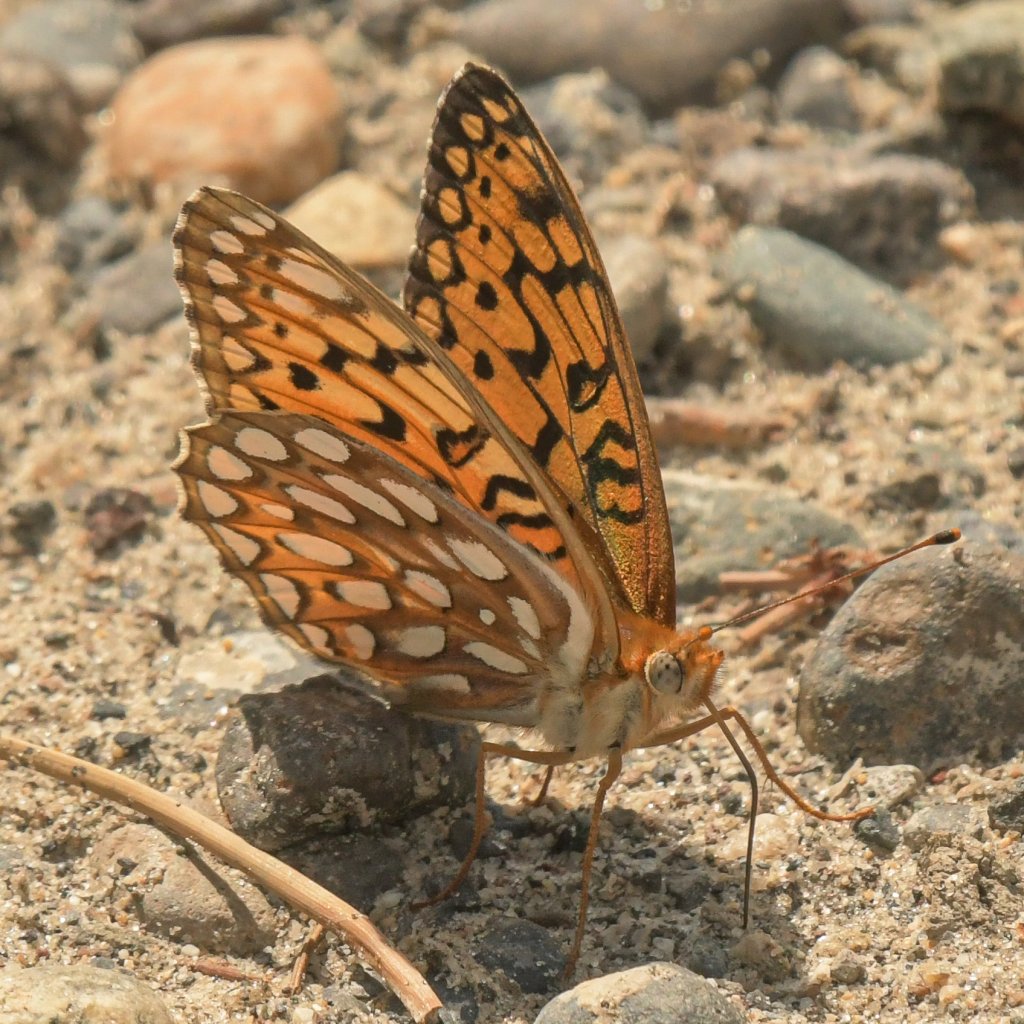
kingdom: Animalia
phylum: Arthropoda
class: Insecta
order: Lepidoptera
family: Nymphalidae
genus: Speyeria
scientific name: Speyeria atlantis
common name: Northwestern Fritillary
